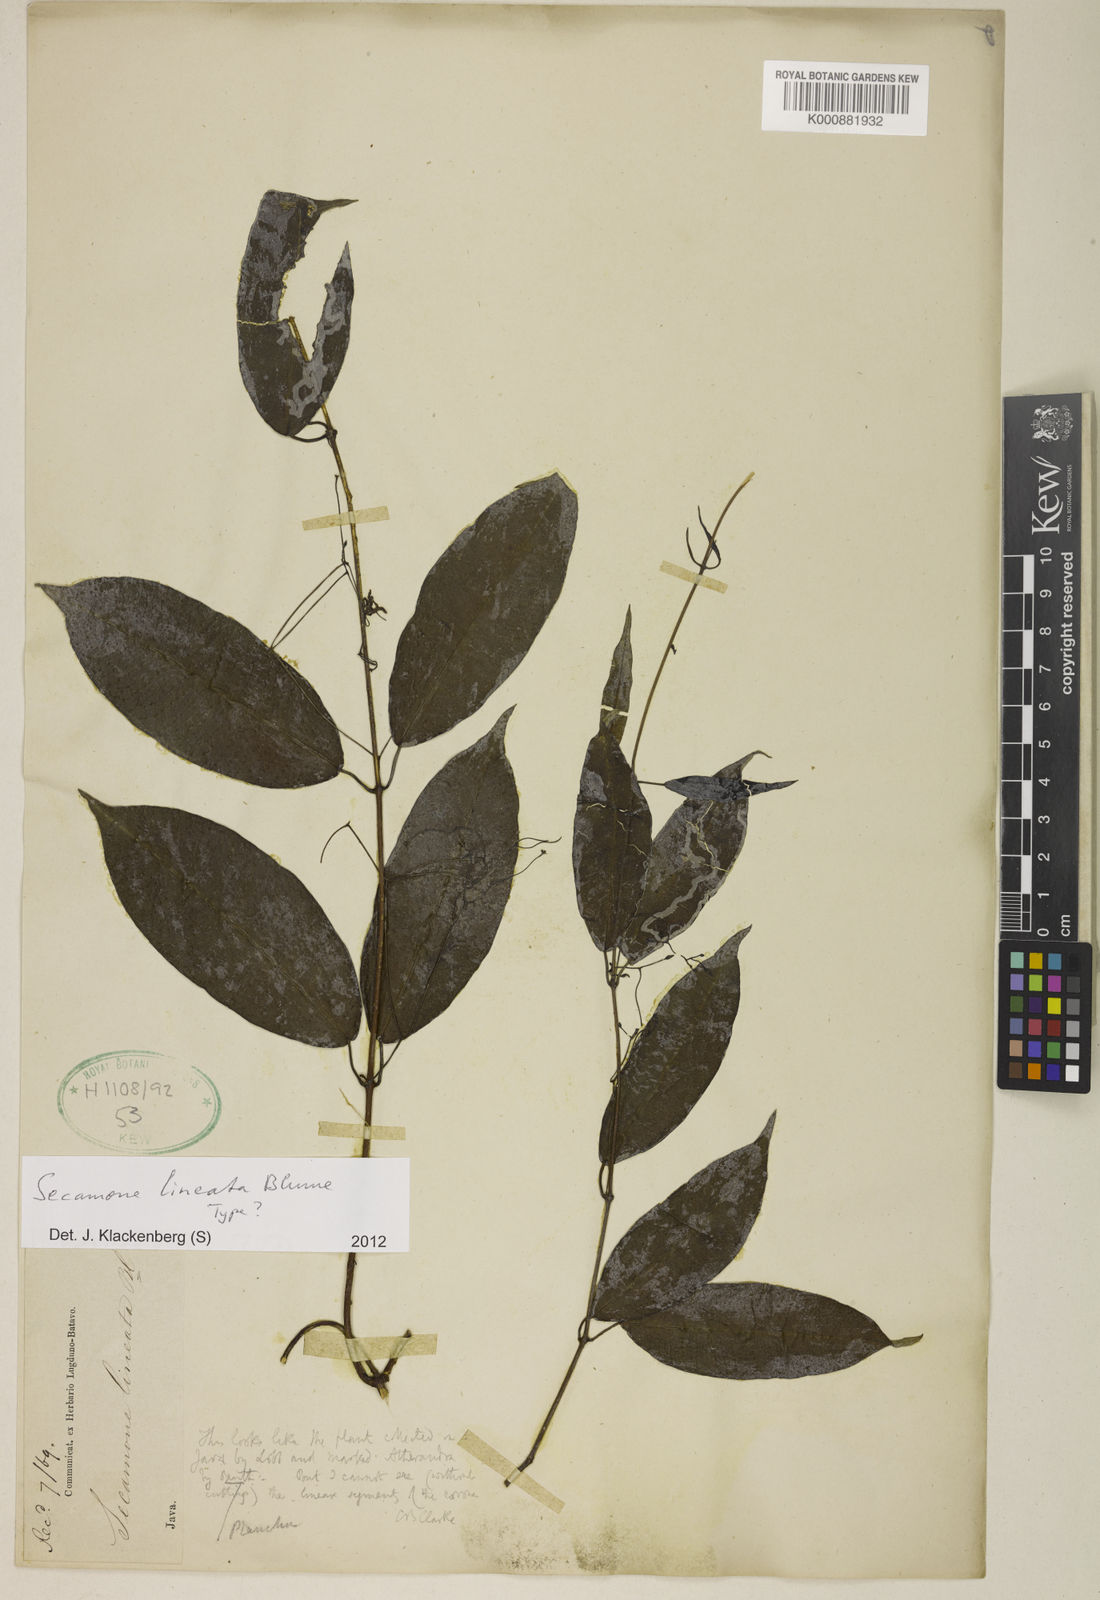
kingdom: Plantae
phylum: Tracheophyta
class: Magnoliopsida
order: Gentianales
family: Apocynaceae
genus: Secamone
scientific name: Secamone lineata
